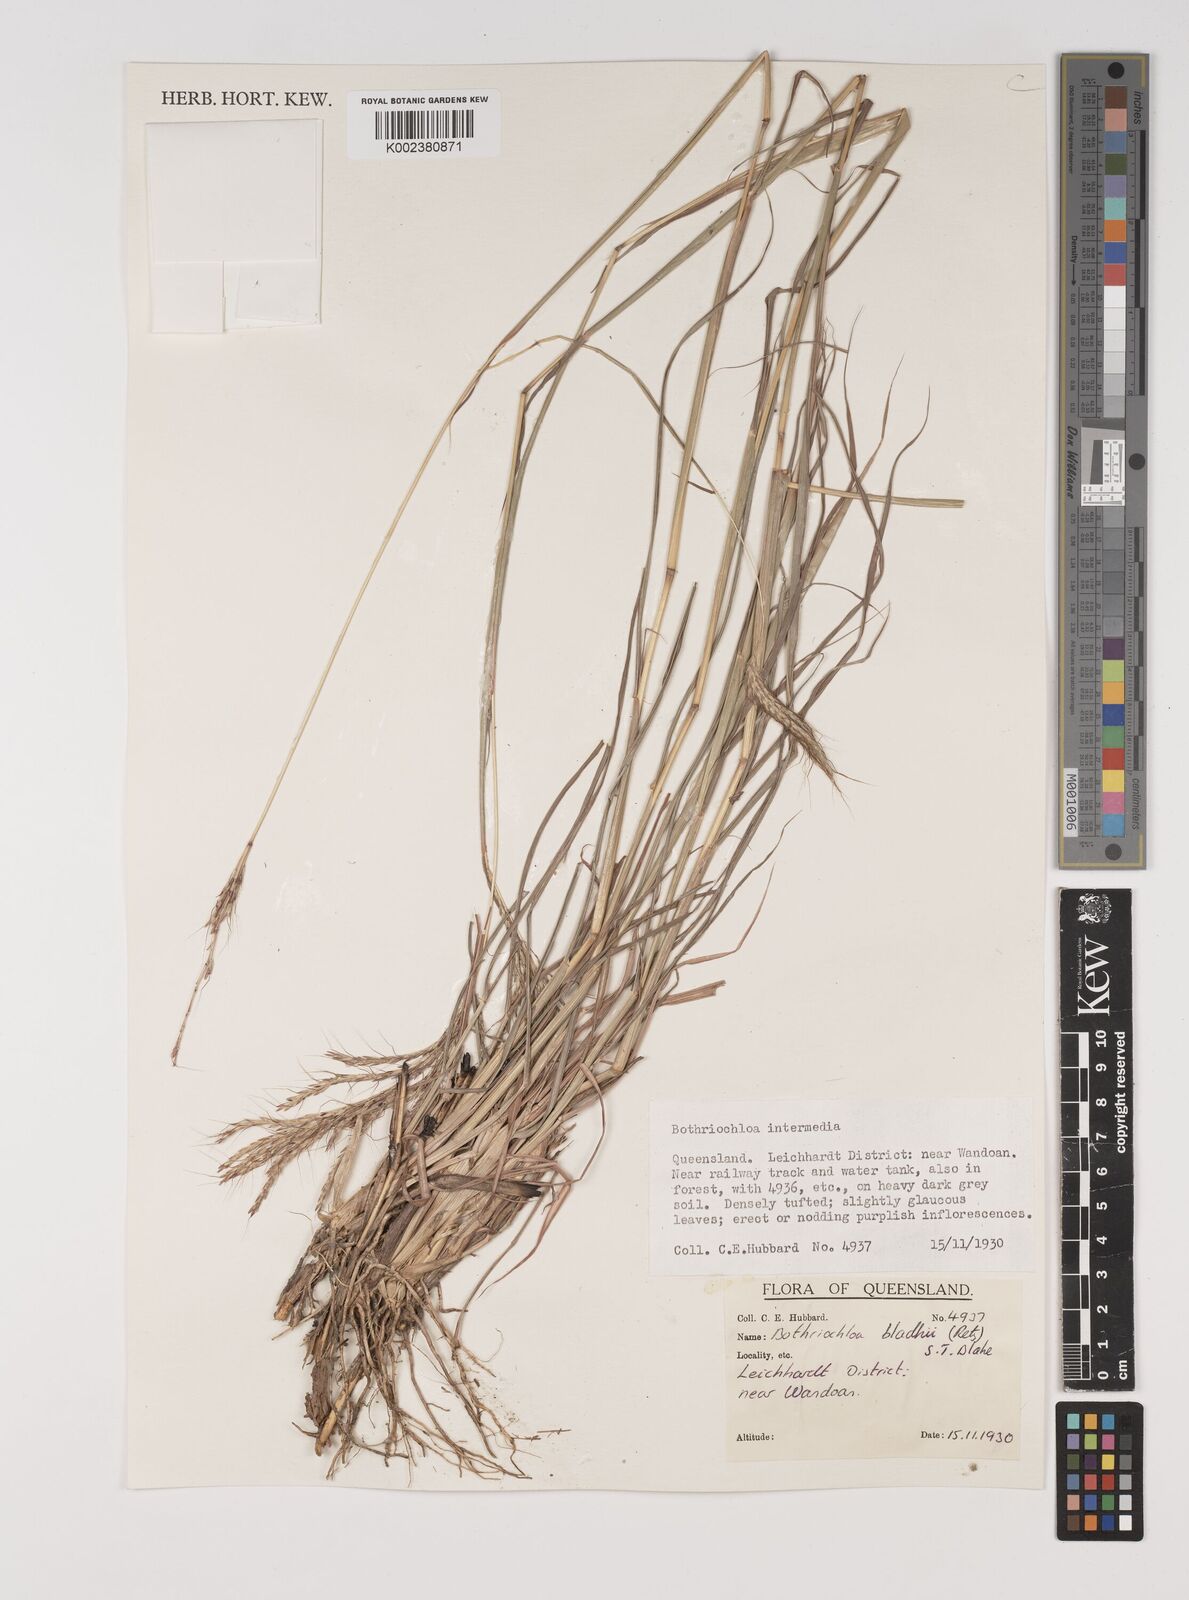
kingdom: Plantae
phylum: Tracheophyta
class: Liliopsida
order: Poales
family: Poaceae
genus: Bothriochloa
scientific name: Bothriochloa bladhii
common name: Caucasian bluestem
